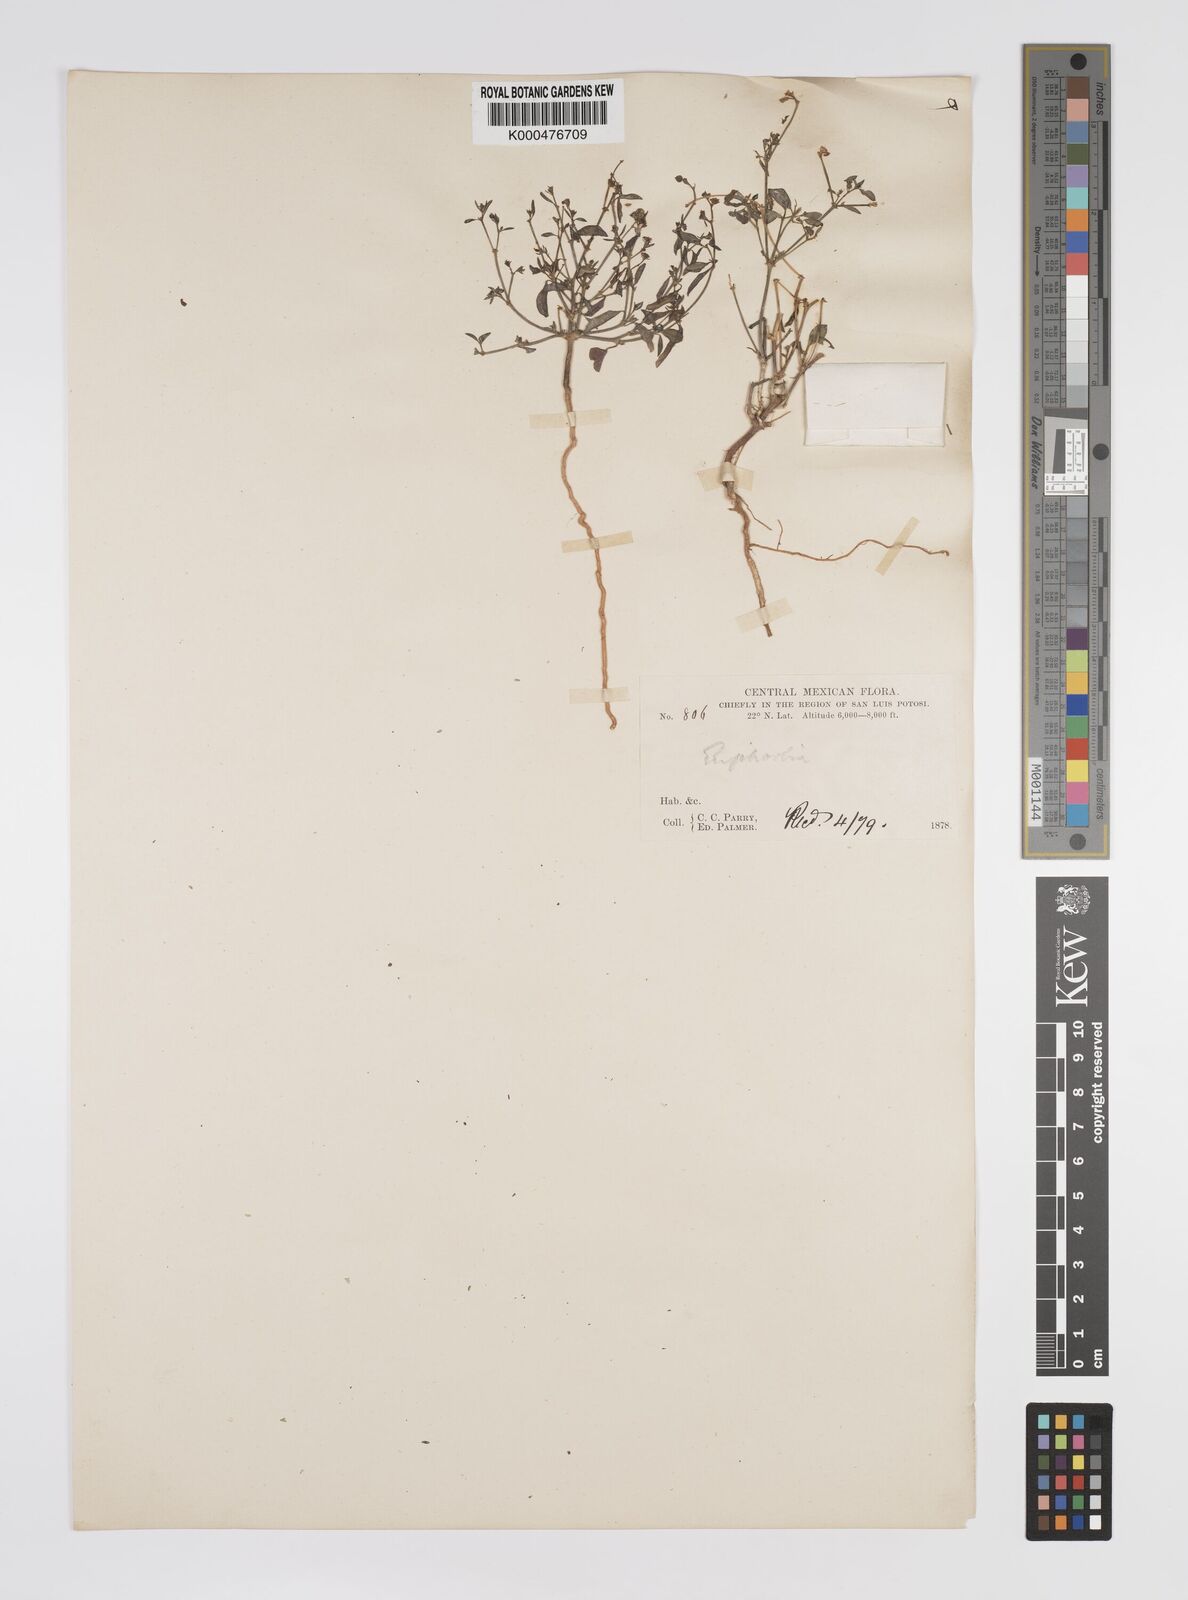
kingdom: Plantae
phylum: Tracheophyta
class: Magnoliopsida
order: Malpighiales
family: Euphorbiaceae
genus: Euphorbia
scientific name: Euphorbia
